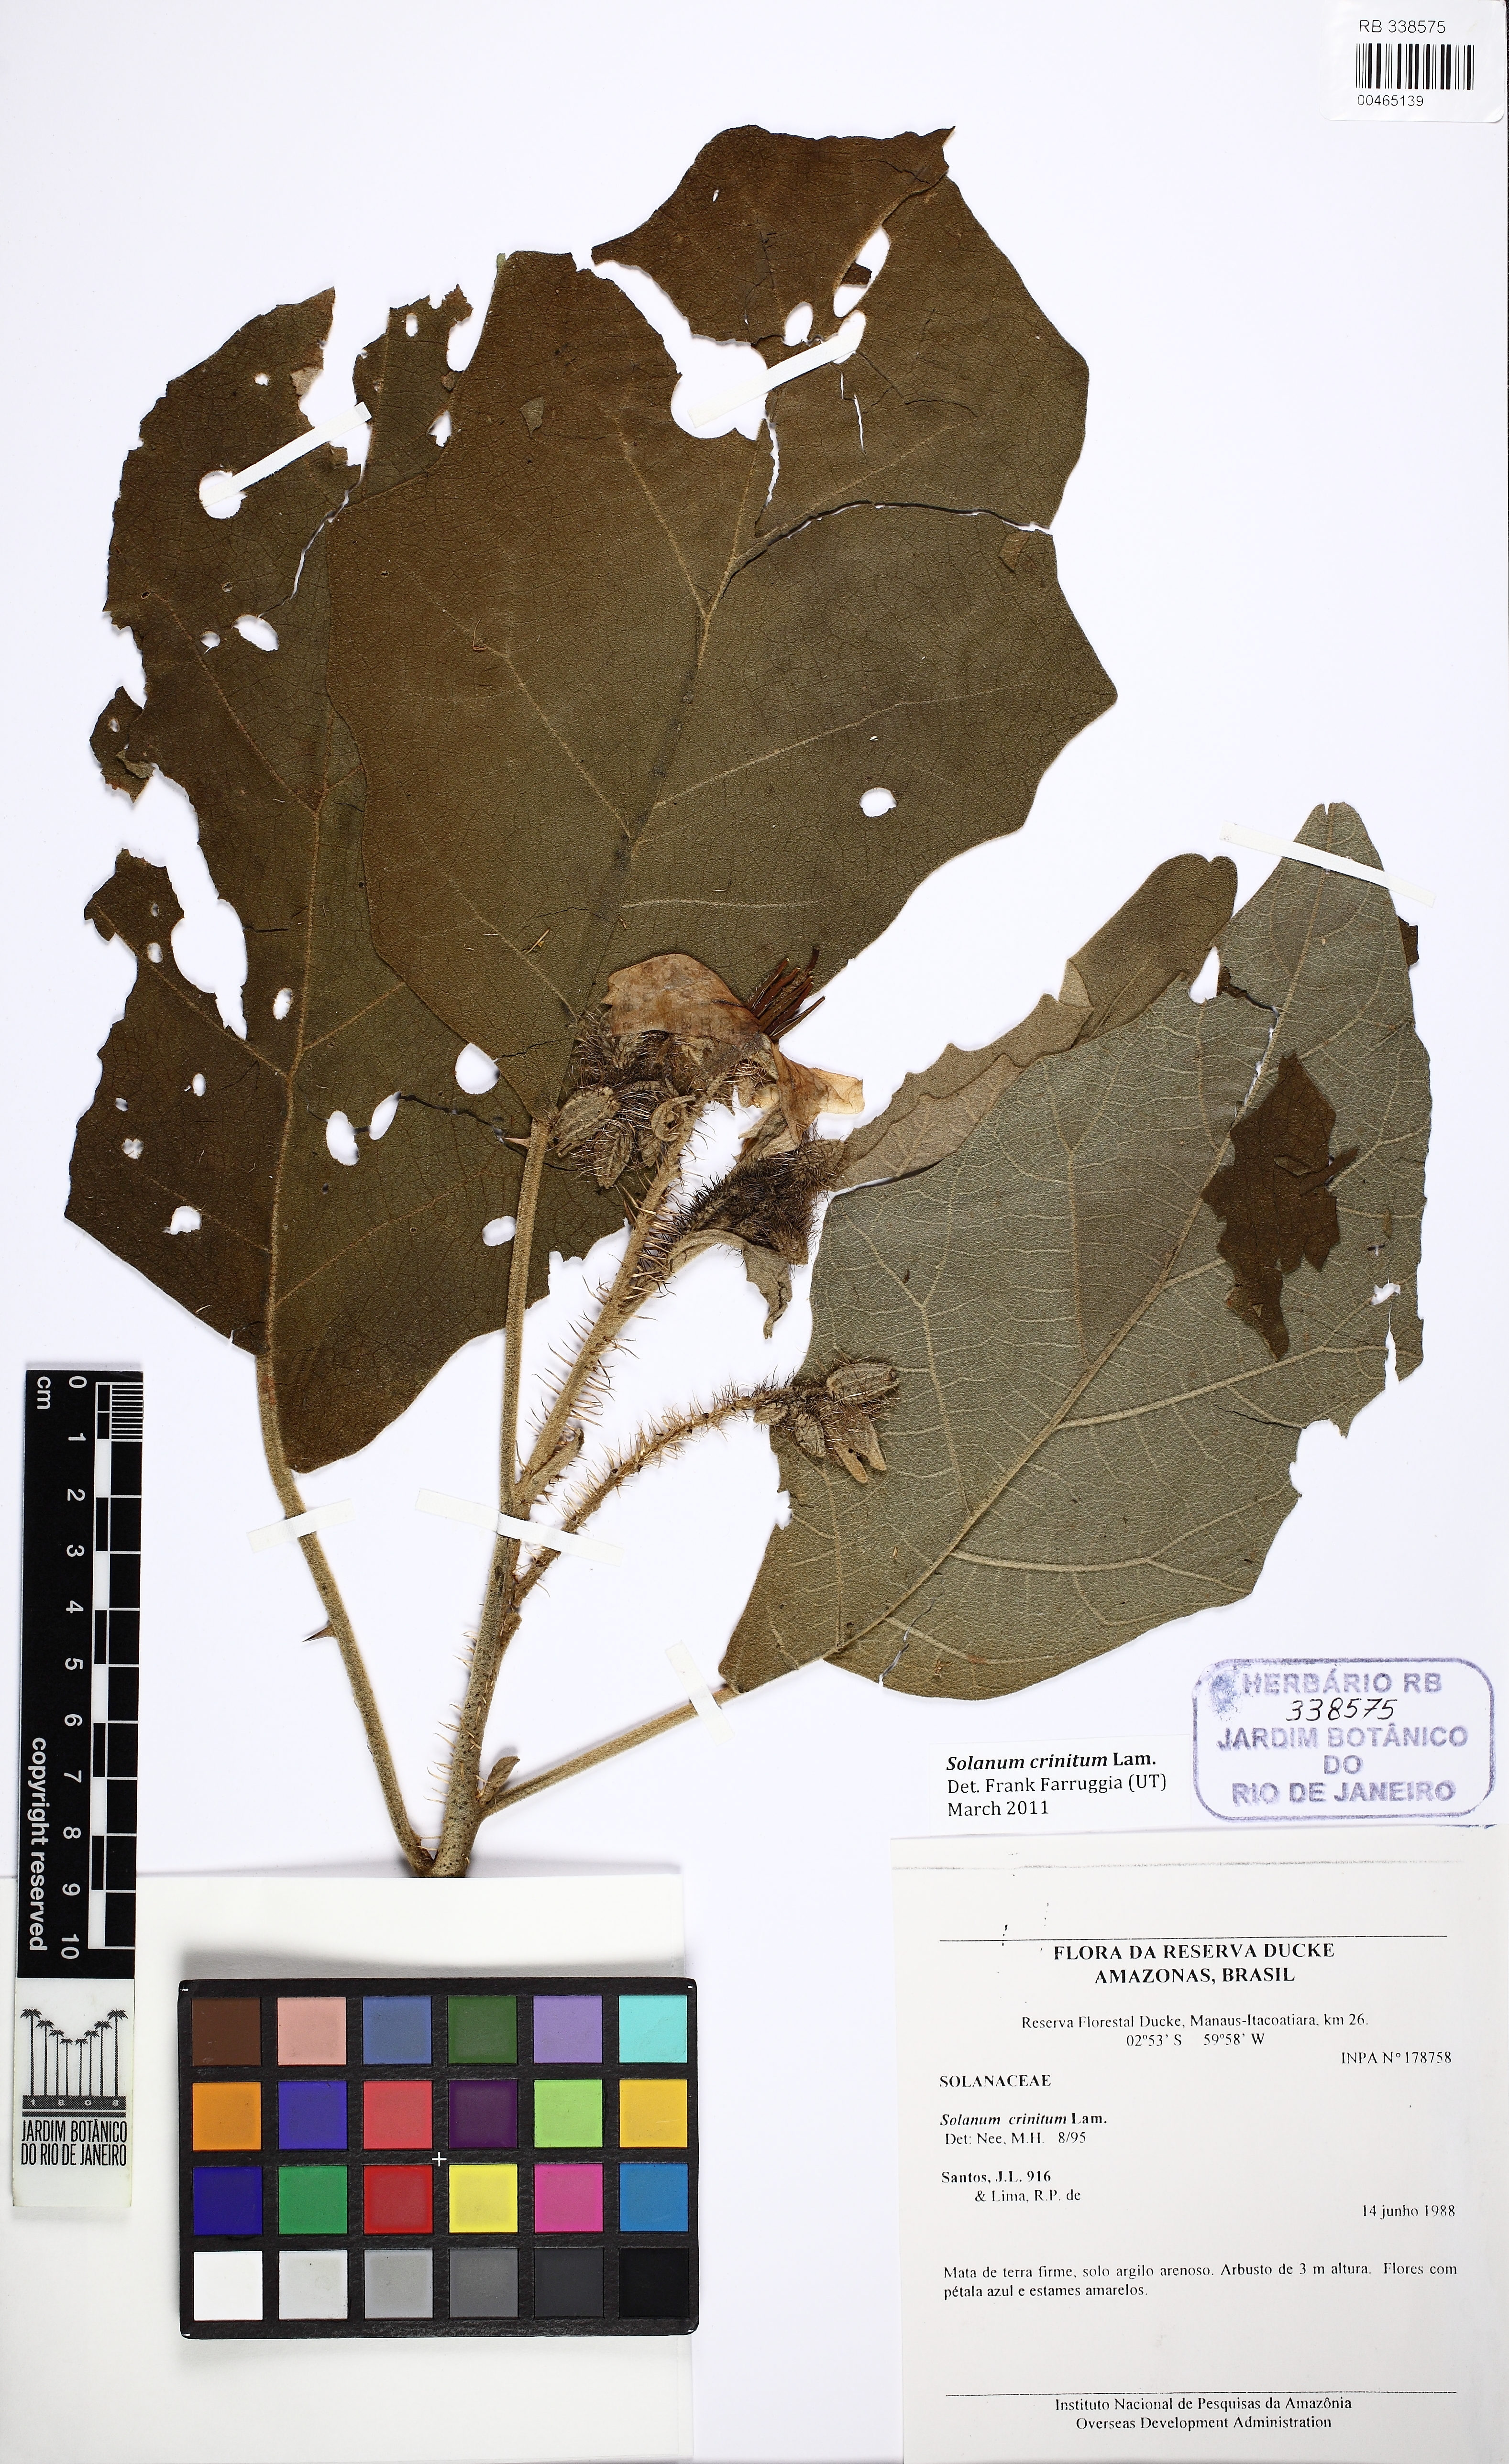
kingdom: Plantae
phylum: Tracheophyta
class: Magnoliopsida
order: Solanales
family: Solanaceae
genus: Solanum
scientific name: Solanum crinitum
